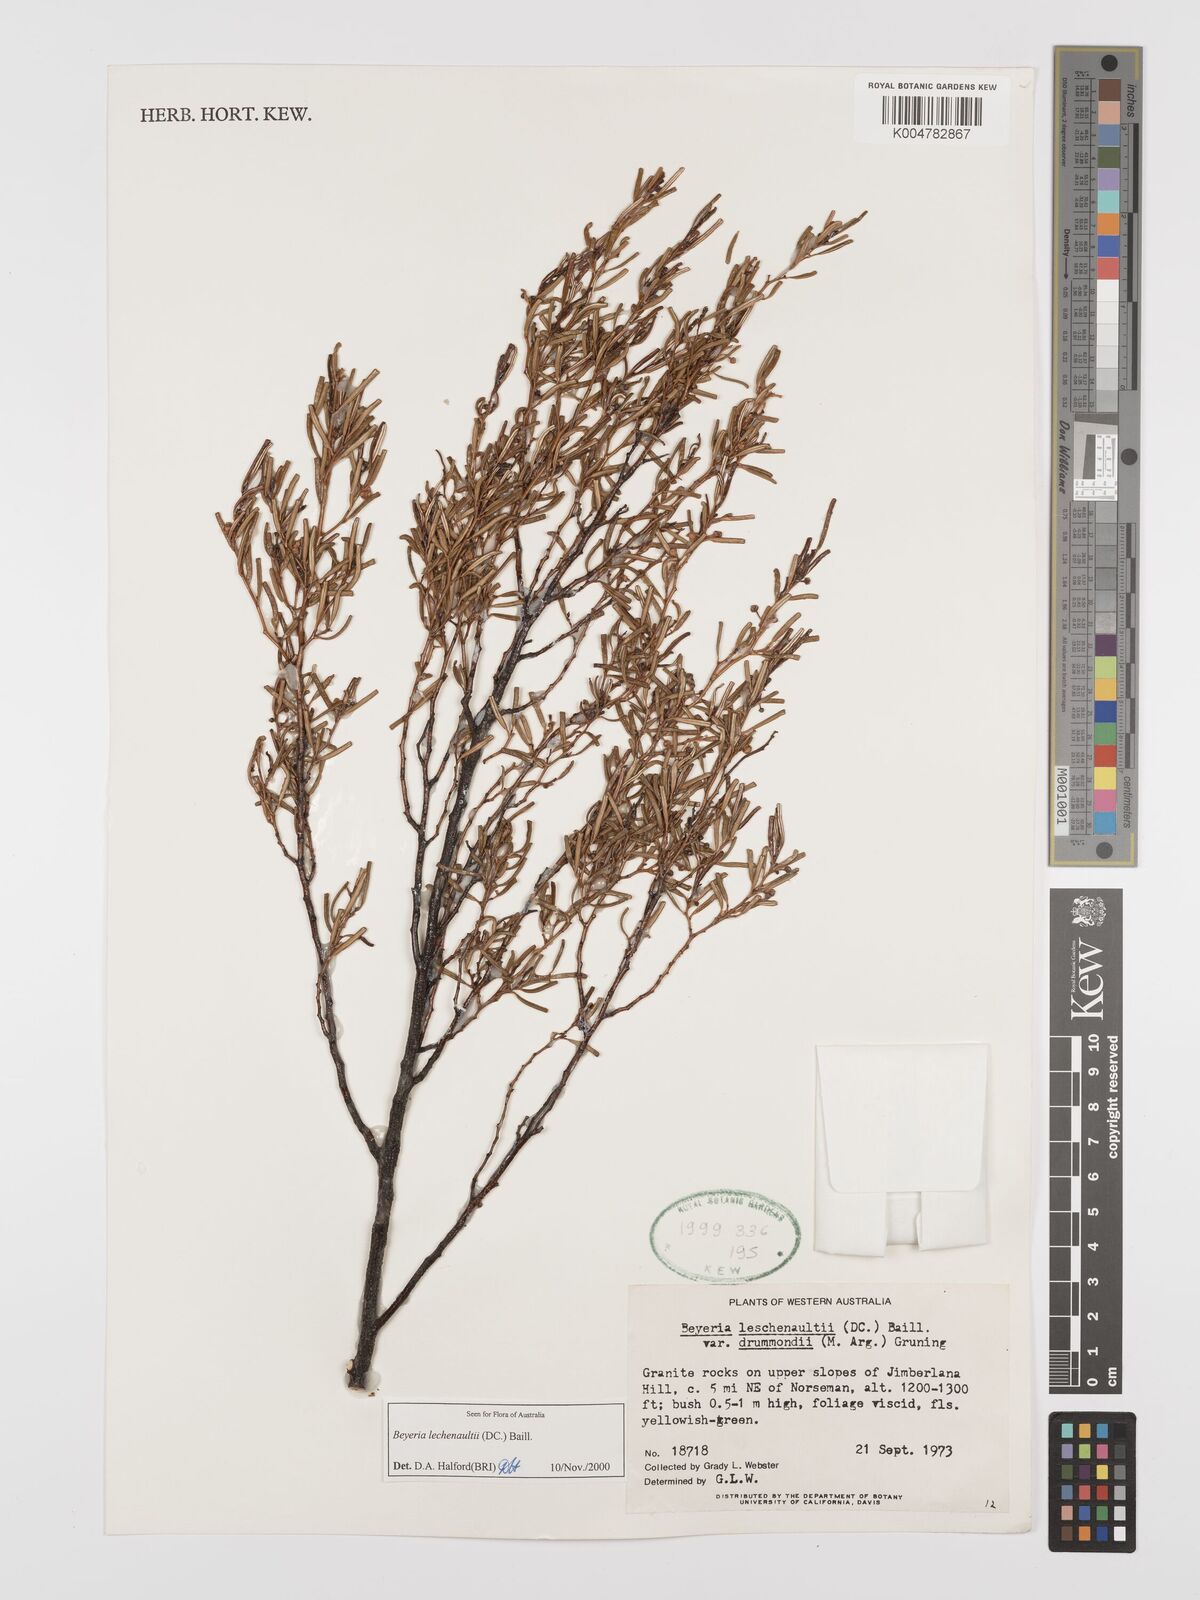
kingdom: Plantae
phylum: Tracheophyta
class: Magnoliopsida
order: Malpighiales
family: Euphorbiaceae
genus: Beyeria
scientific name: Beyeria lechenaultii
